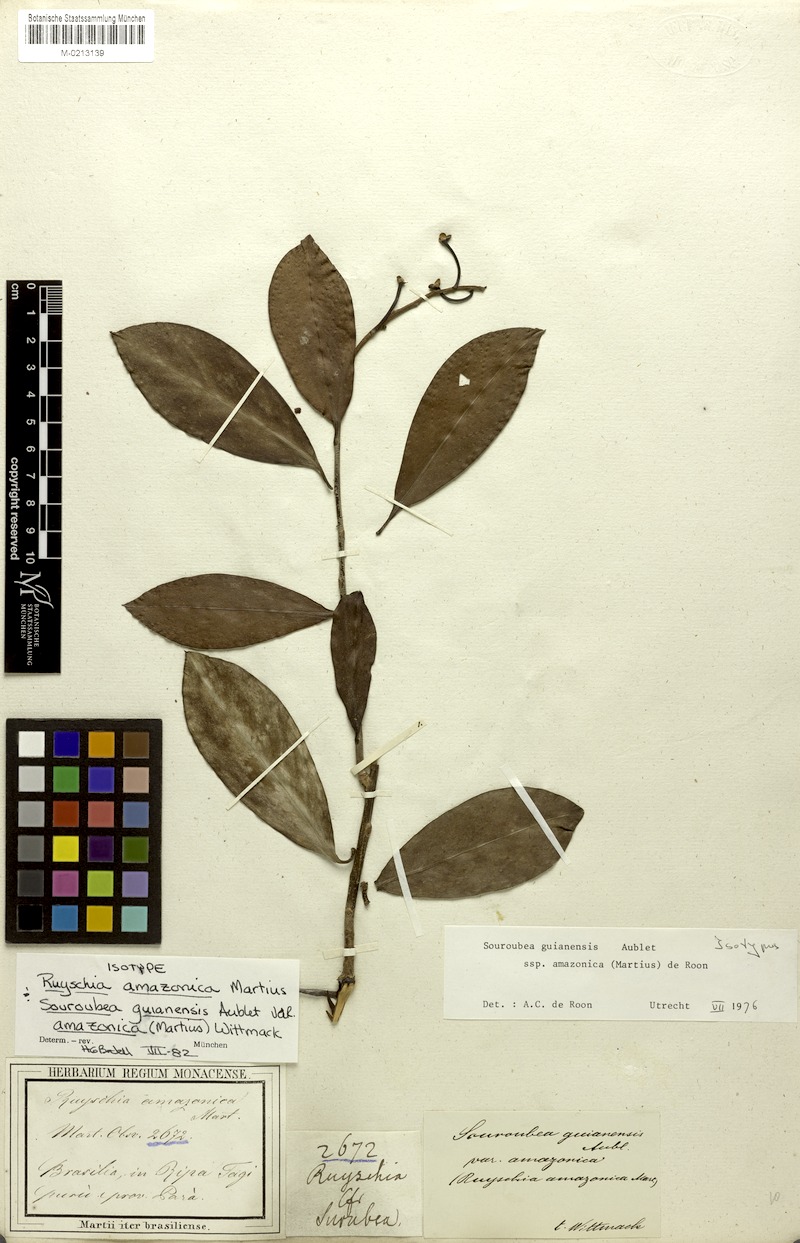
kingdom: Plantae
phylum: Tracheophyta
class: Magnoliopsida
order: Ericales
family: Marcgraviaceae
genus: Souroubea
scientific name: Souroubea guianensis
